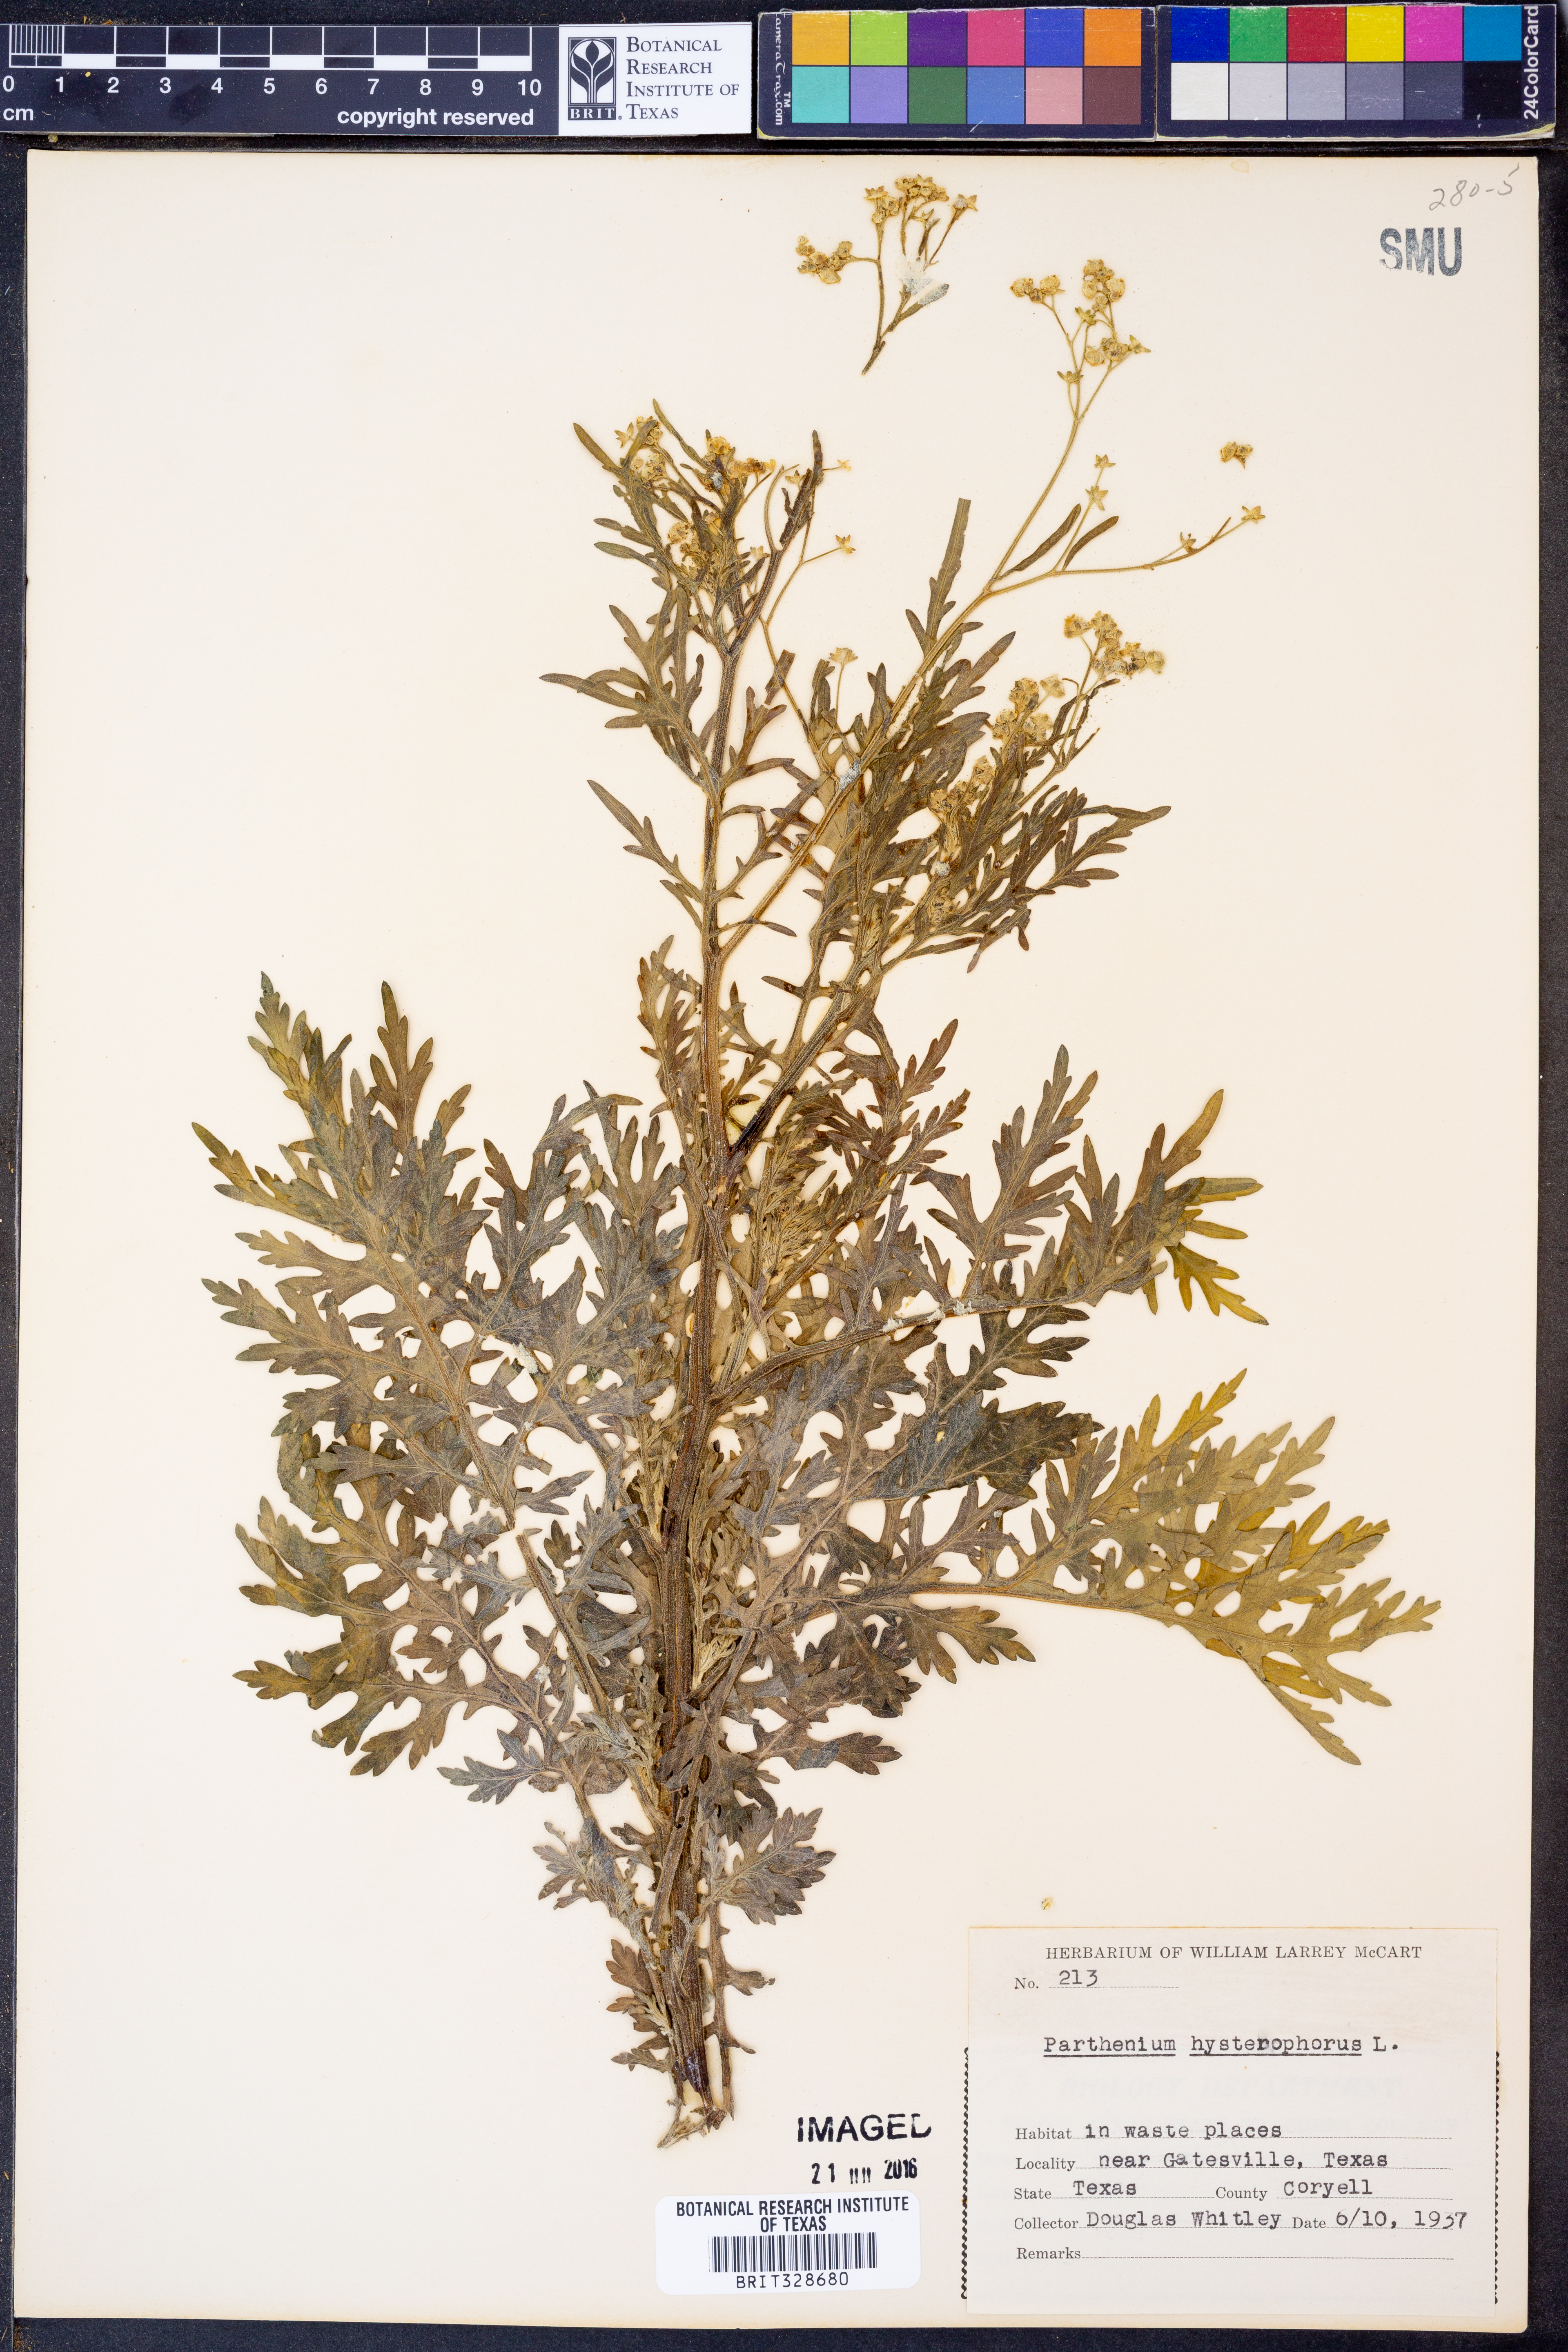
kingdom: Plantae
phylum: Tracheophyta
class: Magnoliopsida
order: Asterales
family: Asteraceae
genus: Parthenium
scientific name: Parthenium hysterophorus
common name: Santa maria feverfew
